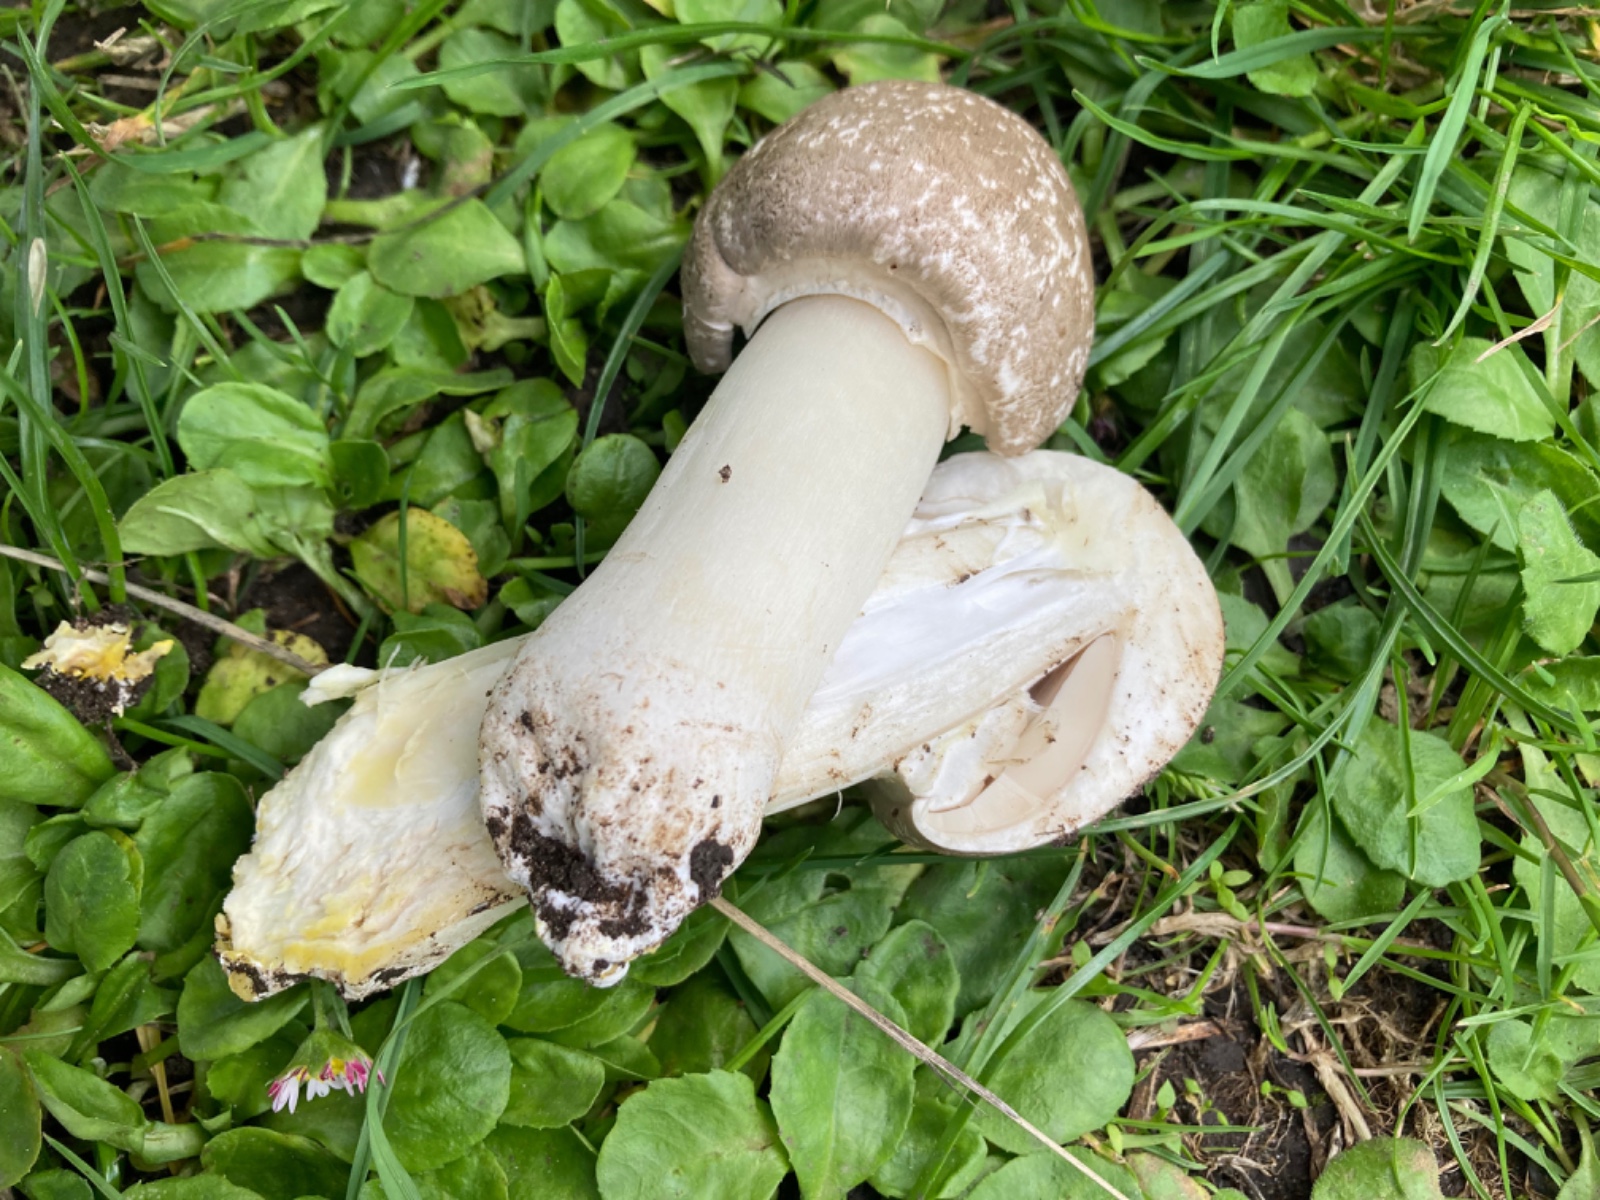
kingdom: Fungi
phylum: Basidiomycota
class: Agaricomycetes
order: Agaricales
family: Agaricaceae
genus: Agaricus
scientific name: Agaricus
